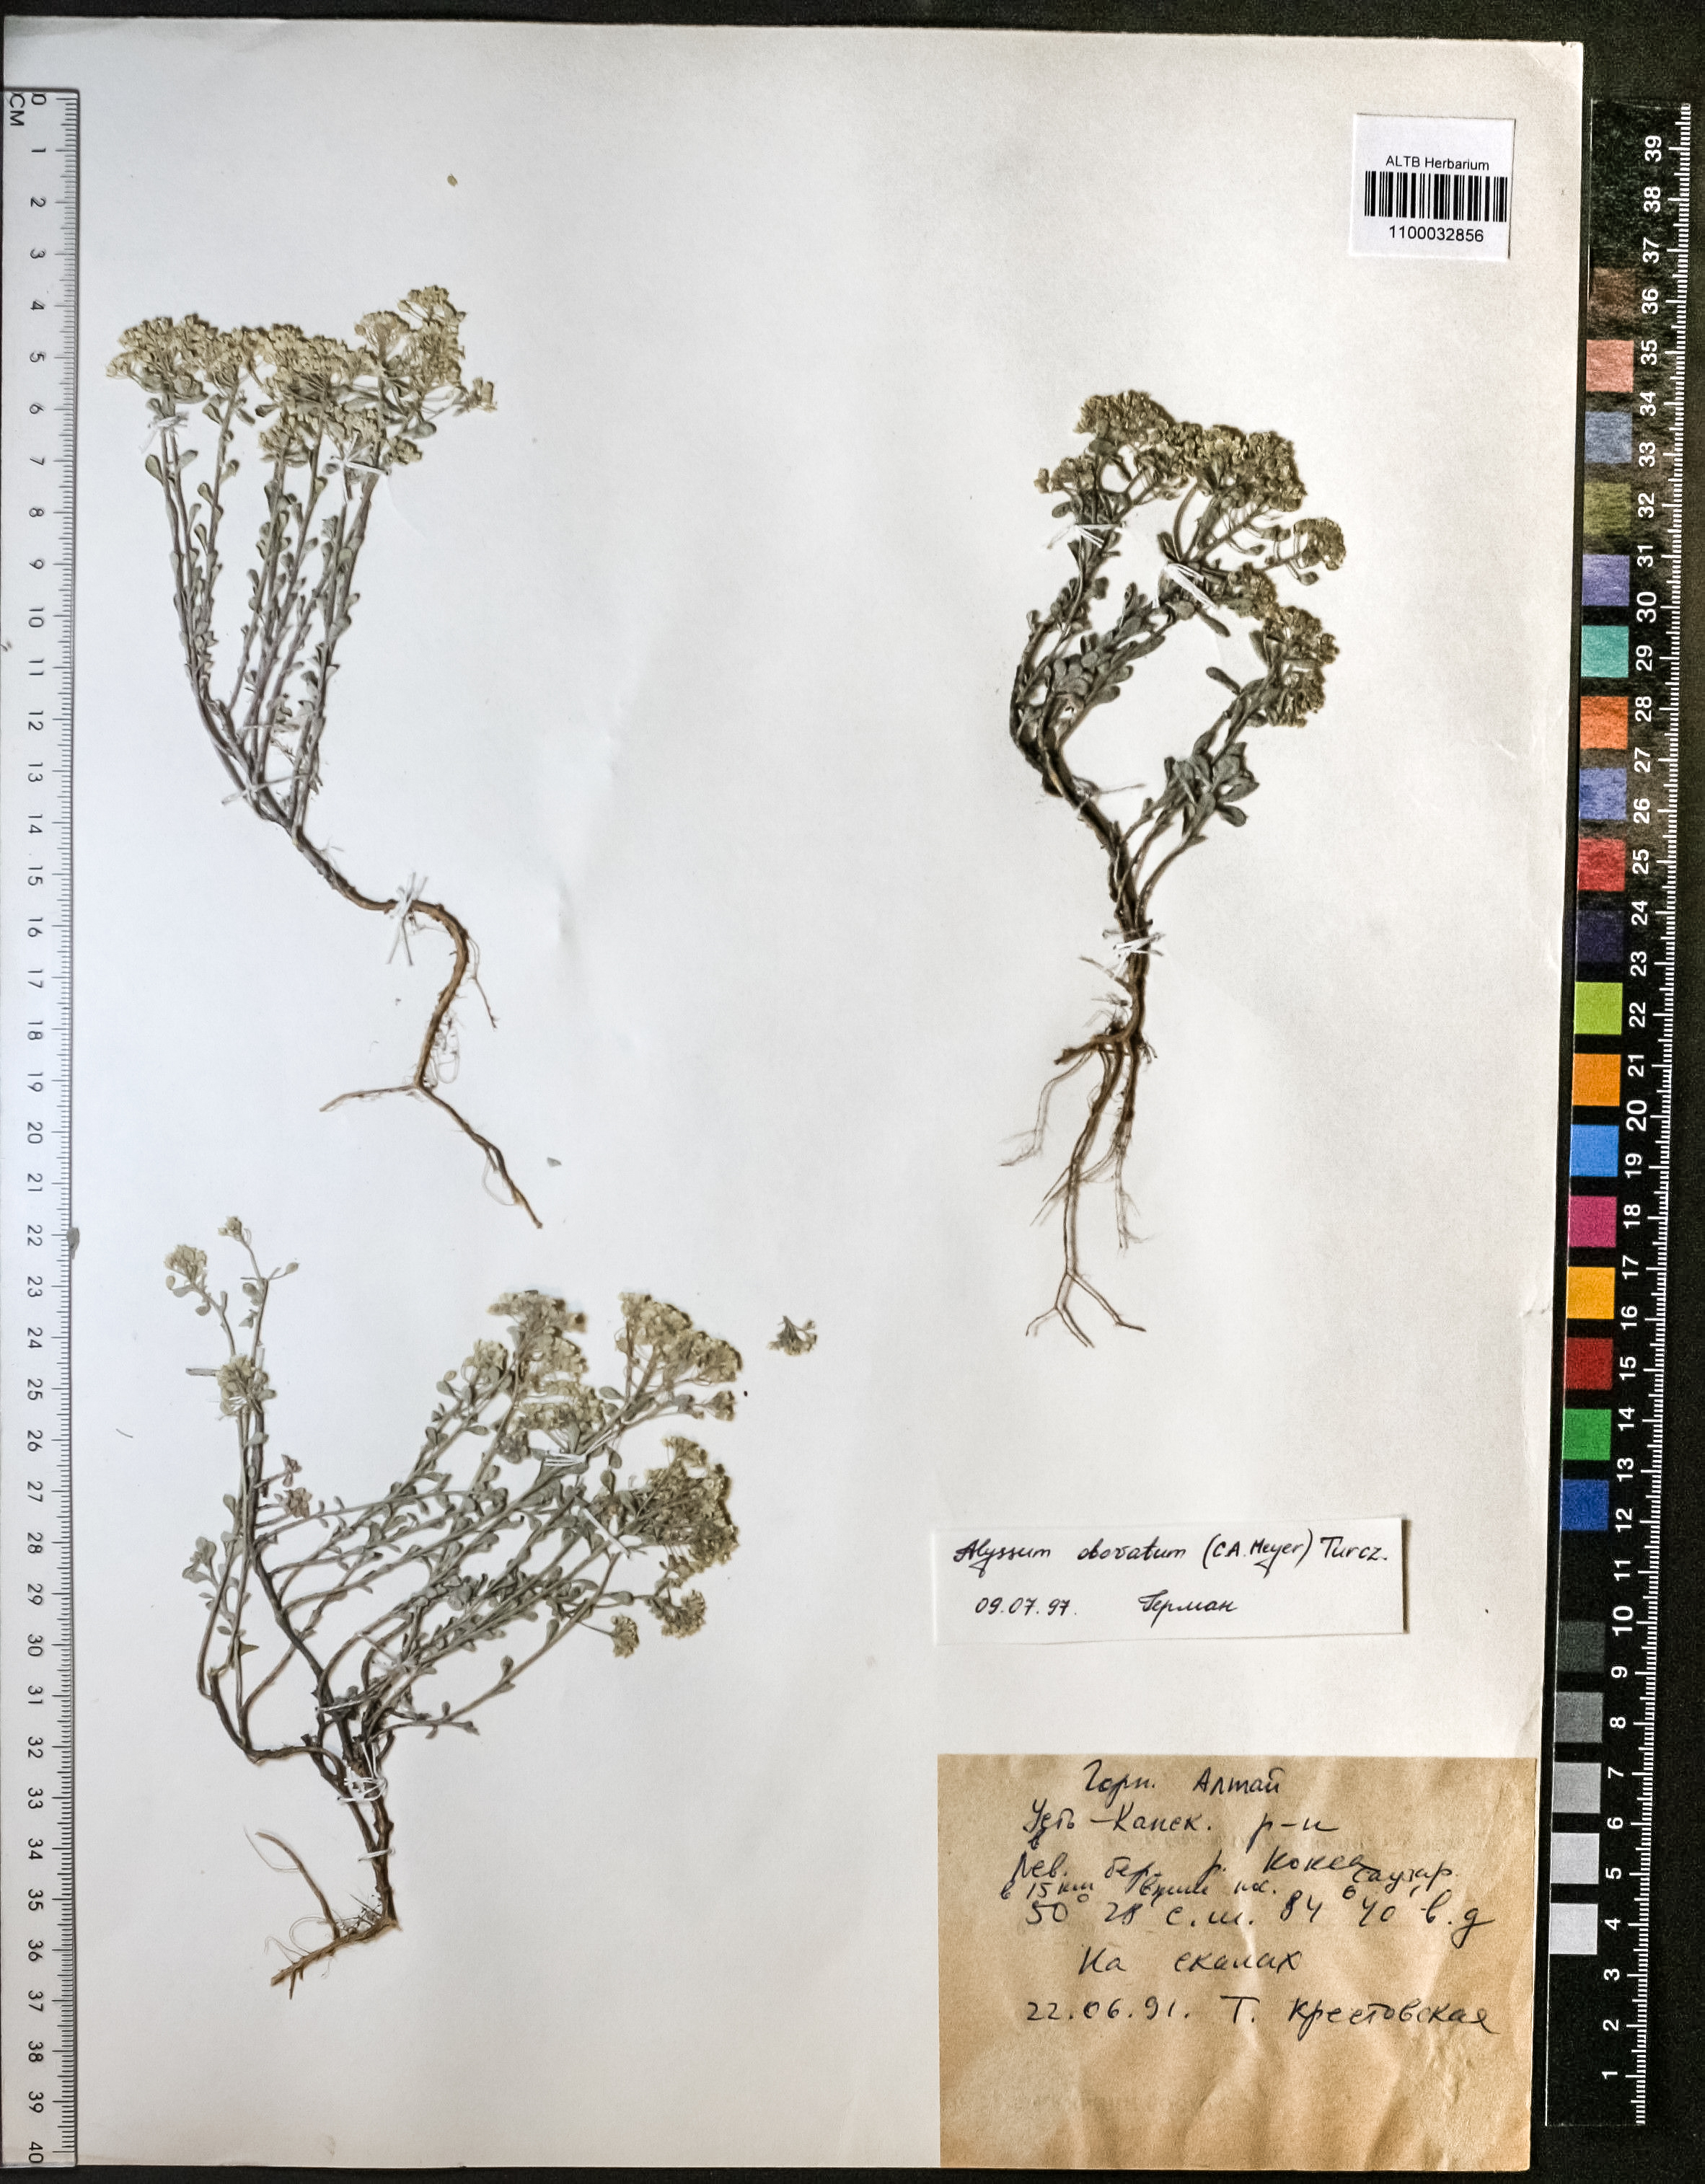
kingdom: Plantae
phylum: Tracheophyta
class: Magnoliopsida
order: Brassicales
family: Brassicaceae
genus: Odontarrhena
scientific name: Odontarrhena obovata
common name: American alyssum
